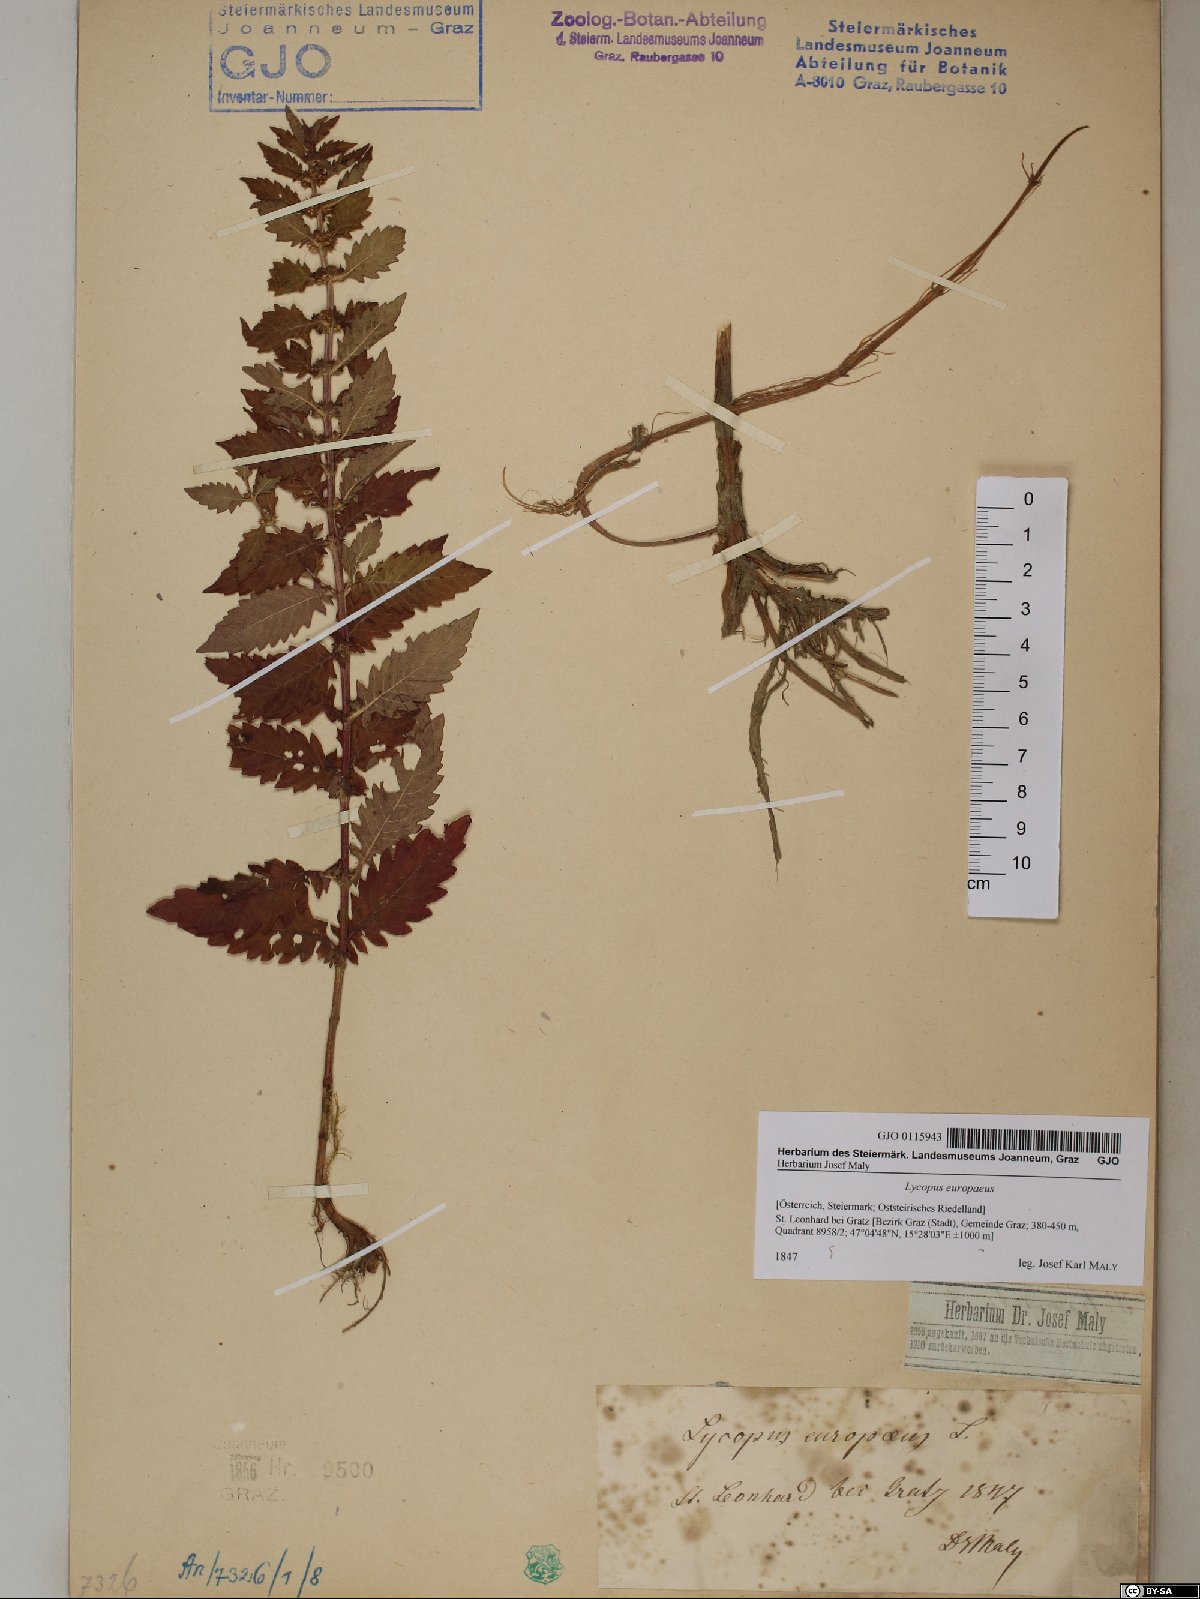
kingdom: Plantae
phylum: Tracheophyta
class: Magnoliopsida
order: Lamiales
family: Lamiaceae
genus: Lycopus
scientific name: Lycopus europaeus
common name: European bugleweed
